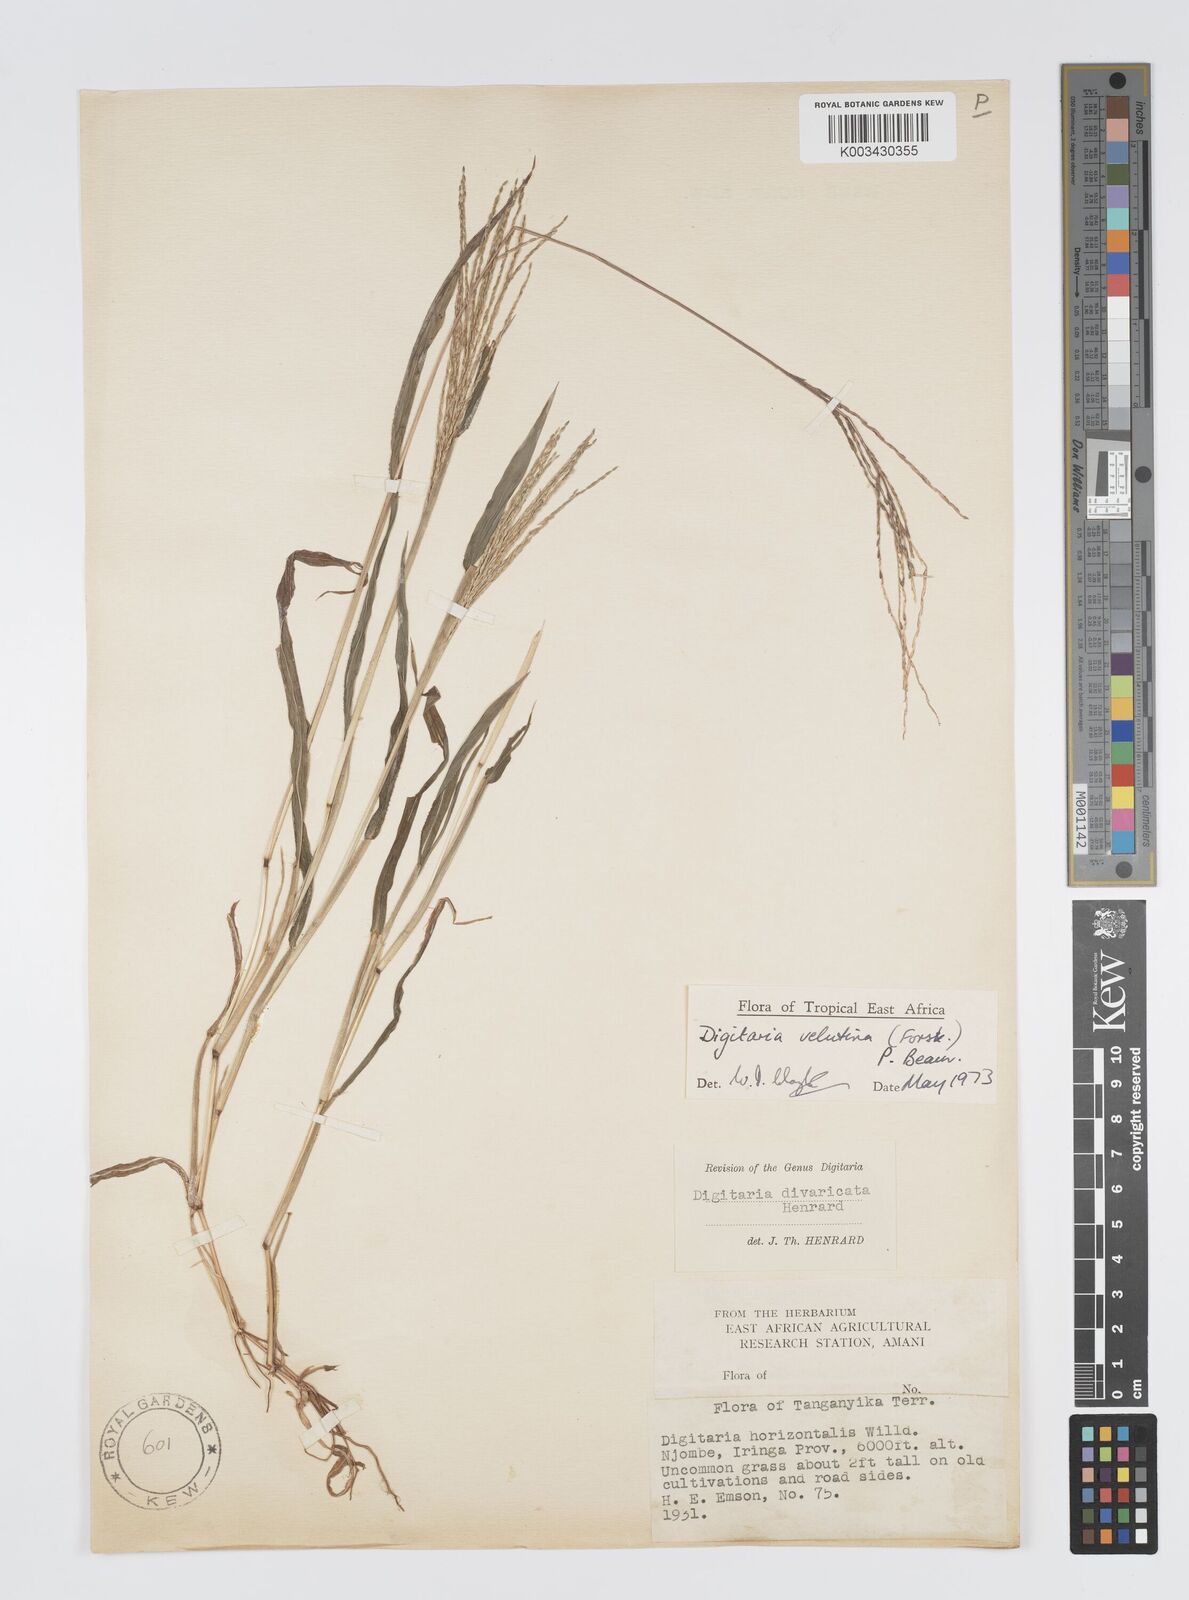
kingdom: Plantae
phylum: Tracheophyta
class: Liliopsida
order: Poales
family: Poaceae
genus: Digitaria
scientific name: Digitaria velutina
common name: Long-plume finger grass
